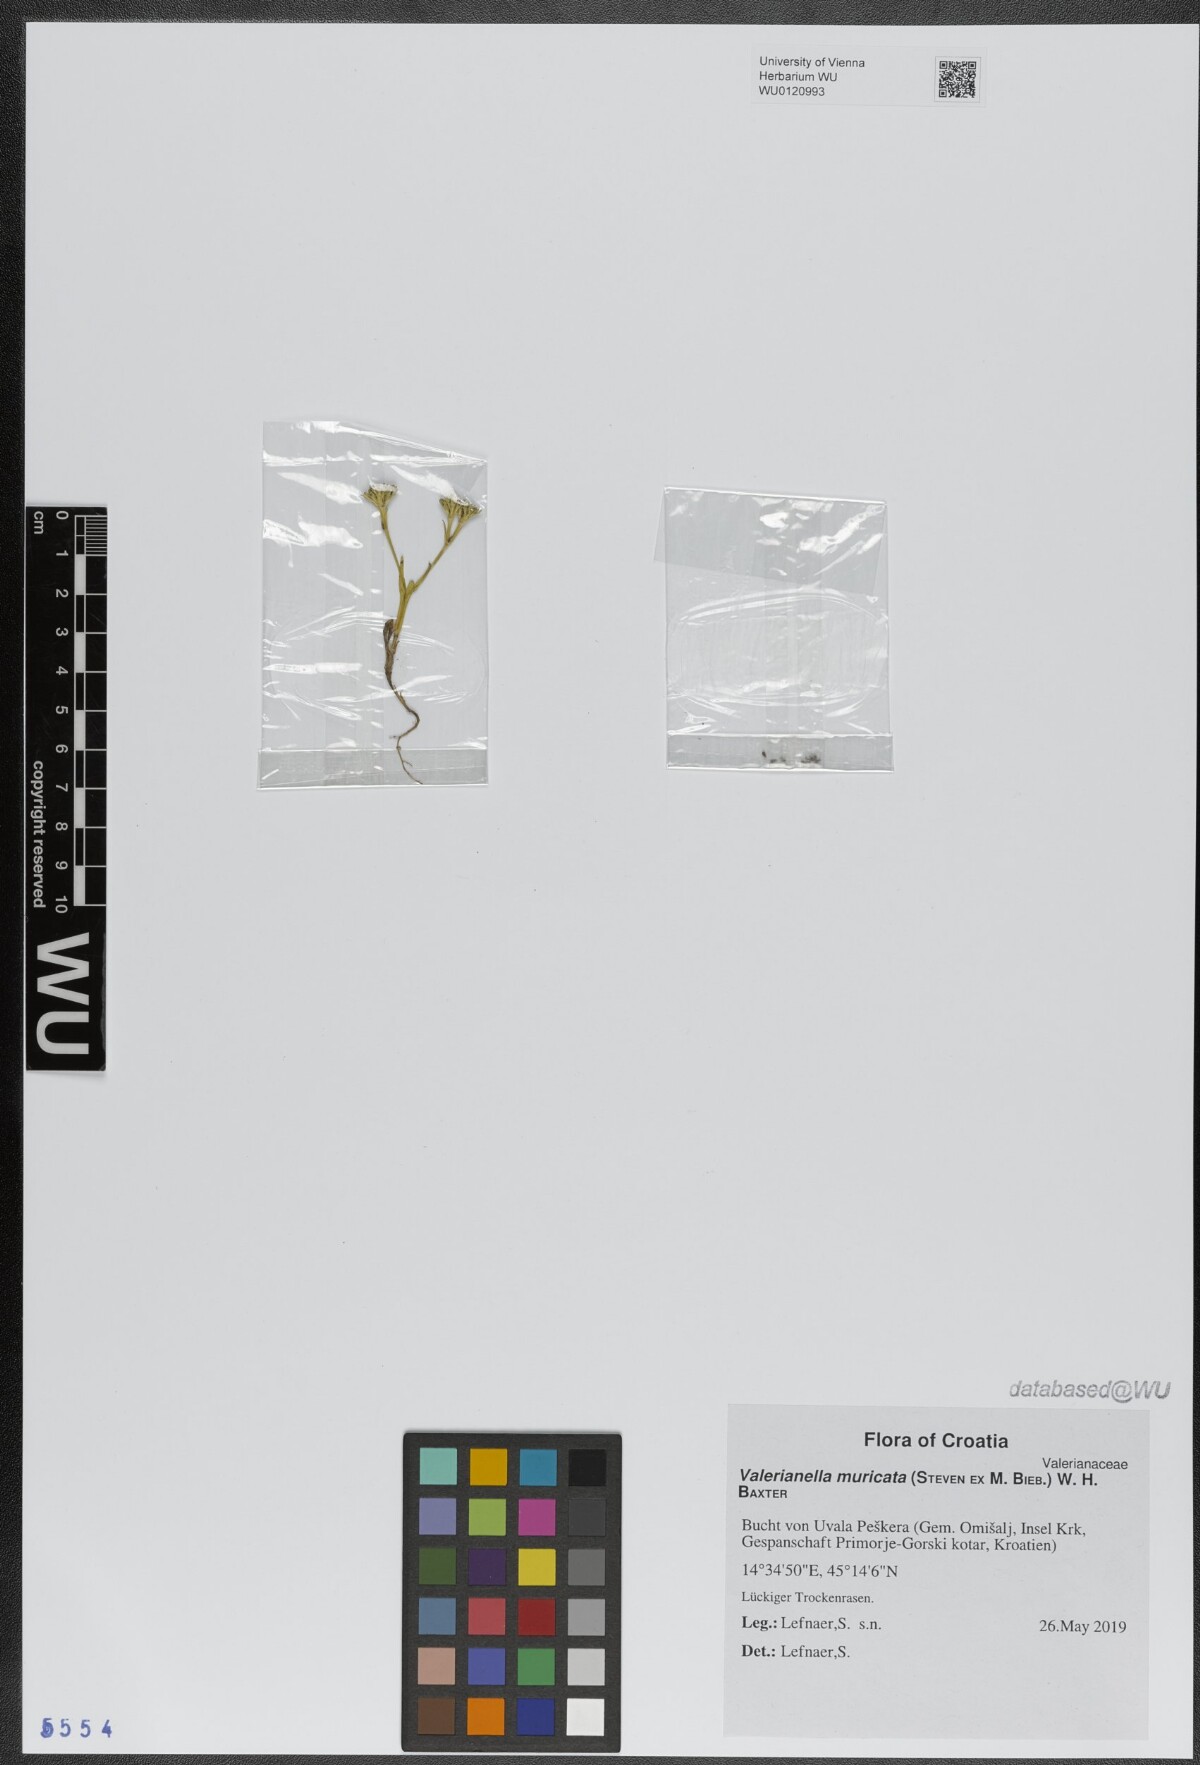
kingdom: Plantae
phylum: Tracheophyta
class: Magnoliopsida
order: Dipsacales
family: Caprifoliaceae
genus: Valerianella
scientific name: Valerianella eriocarpa
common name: Hairy-fruited cornsalad
